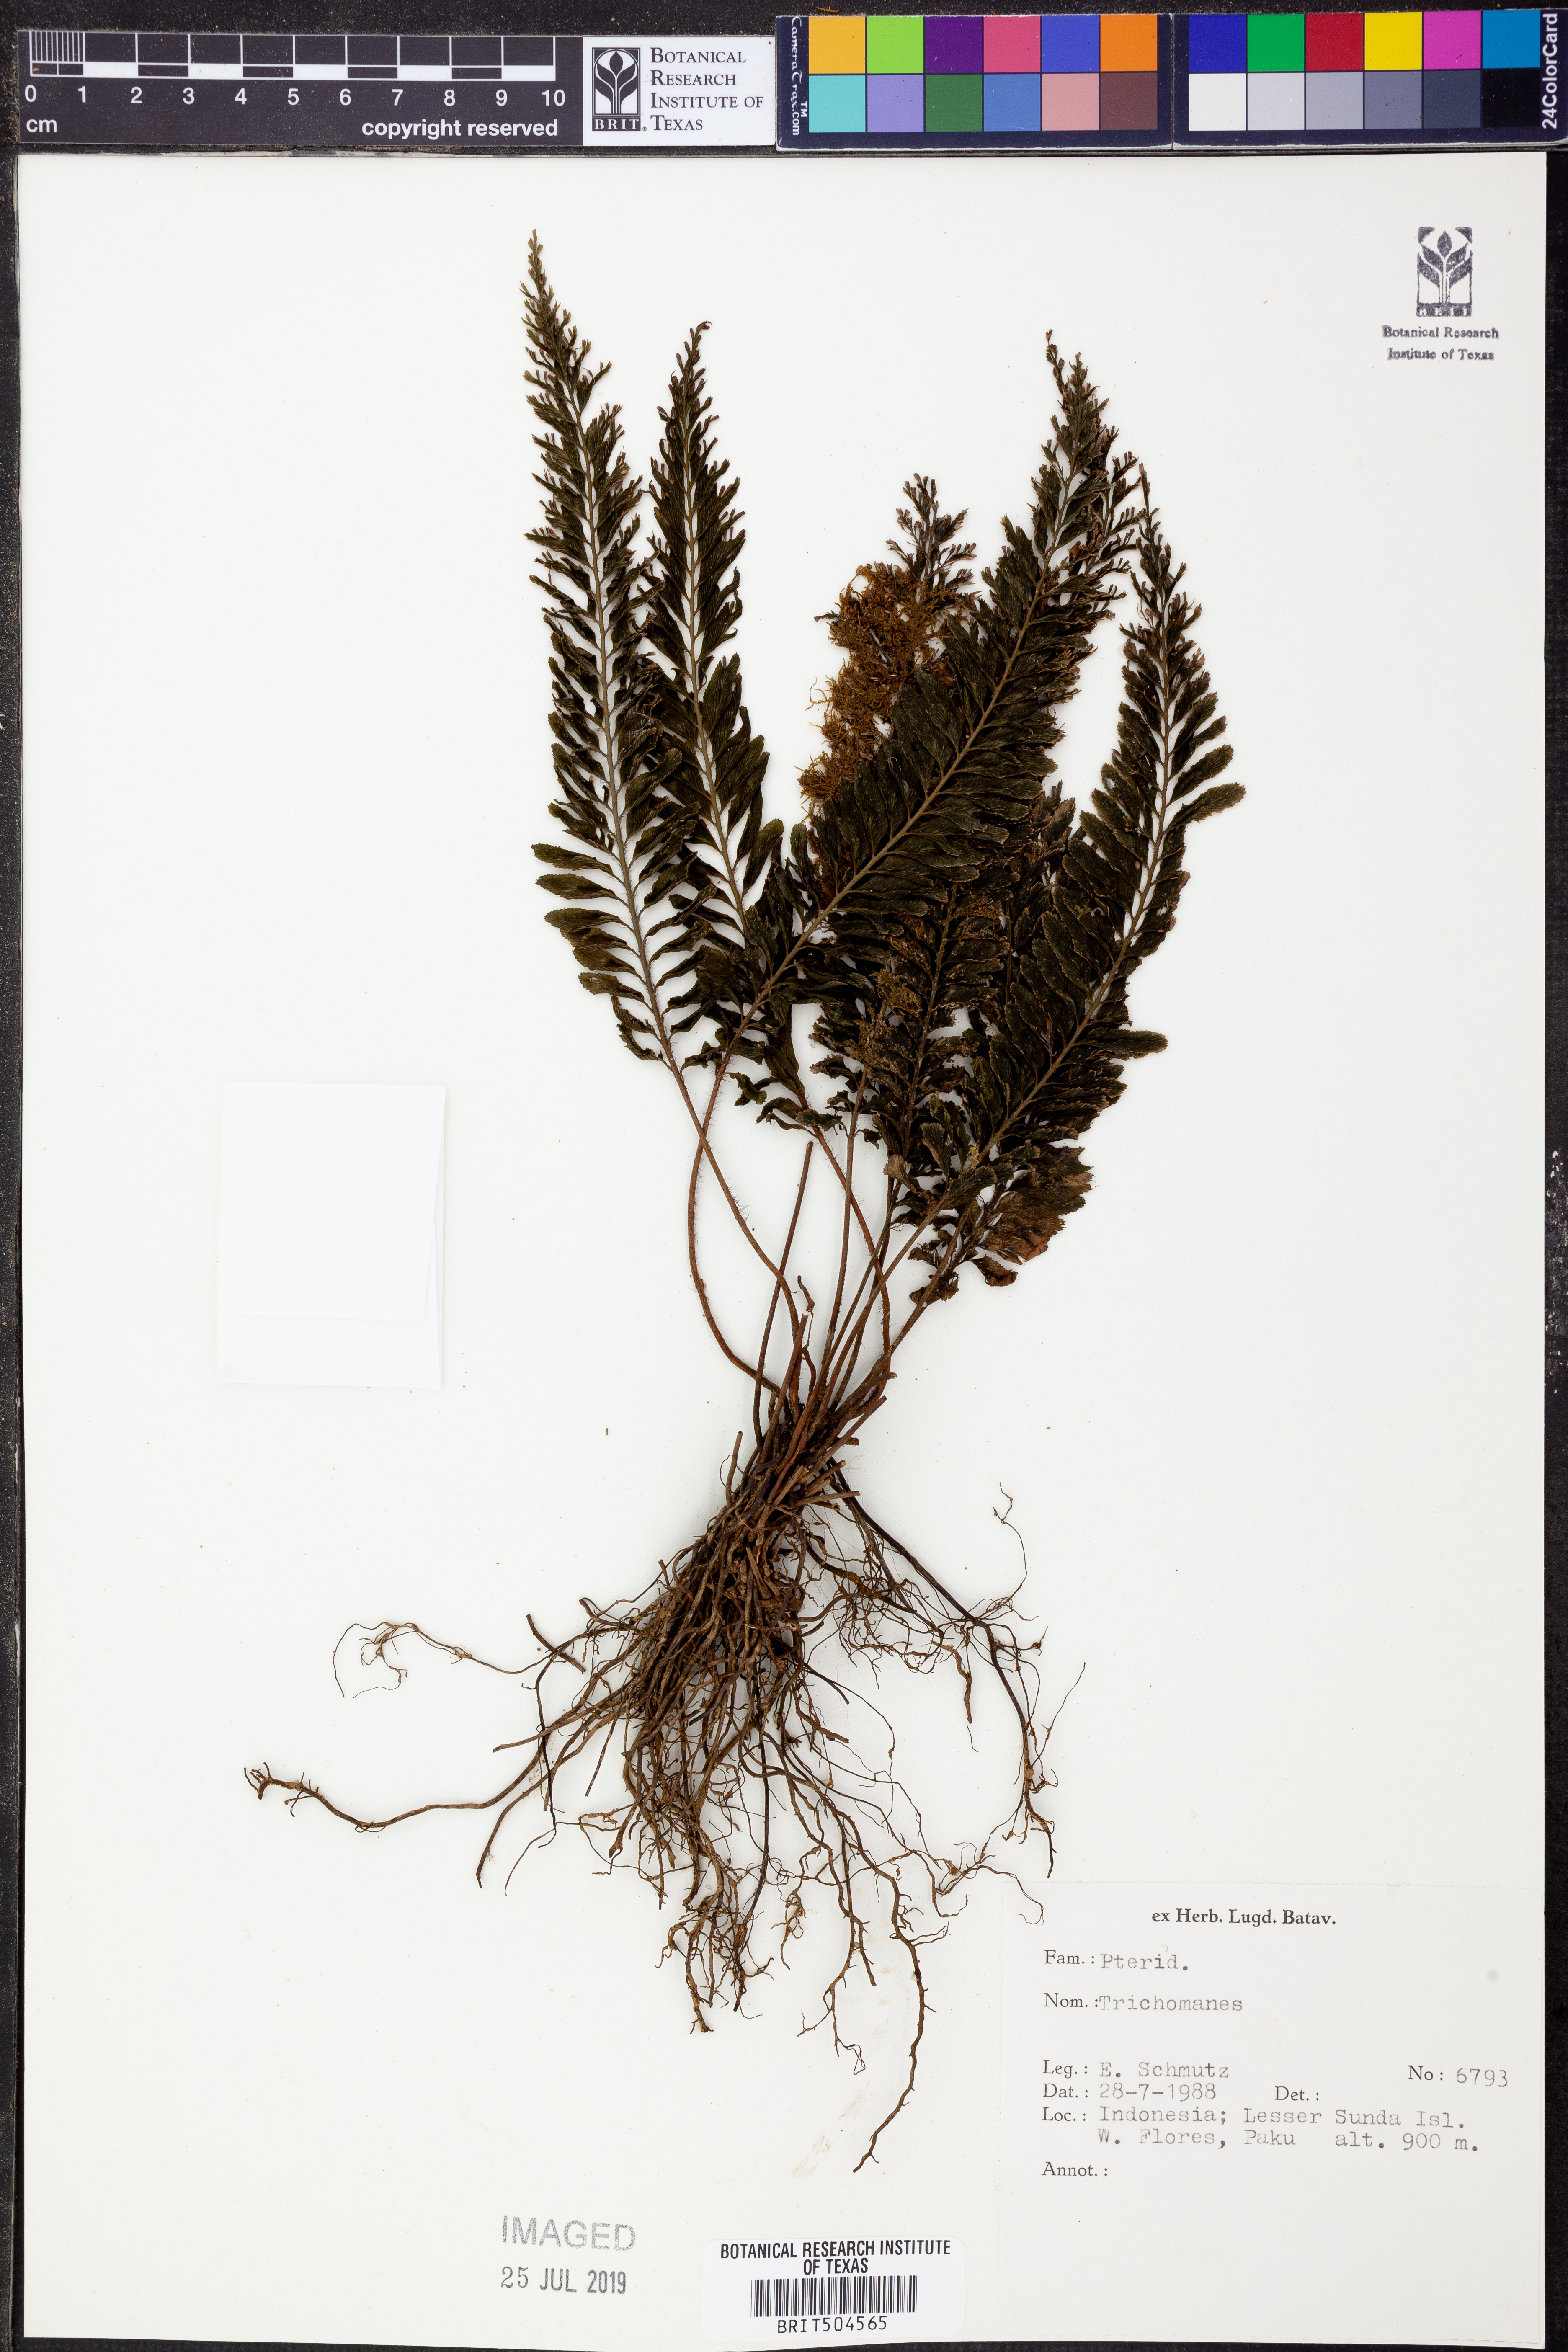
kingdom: Plantae
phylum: Tracheophyta
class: Polypodiopsida
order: Hymenophyllales
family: Hymenophyllaceae
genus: Trichomanes
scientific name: Trichomanes
